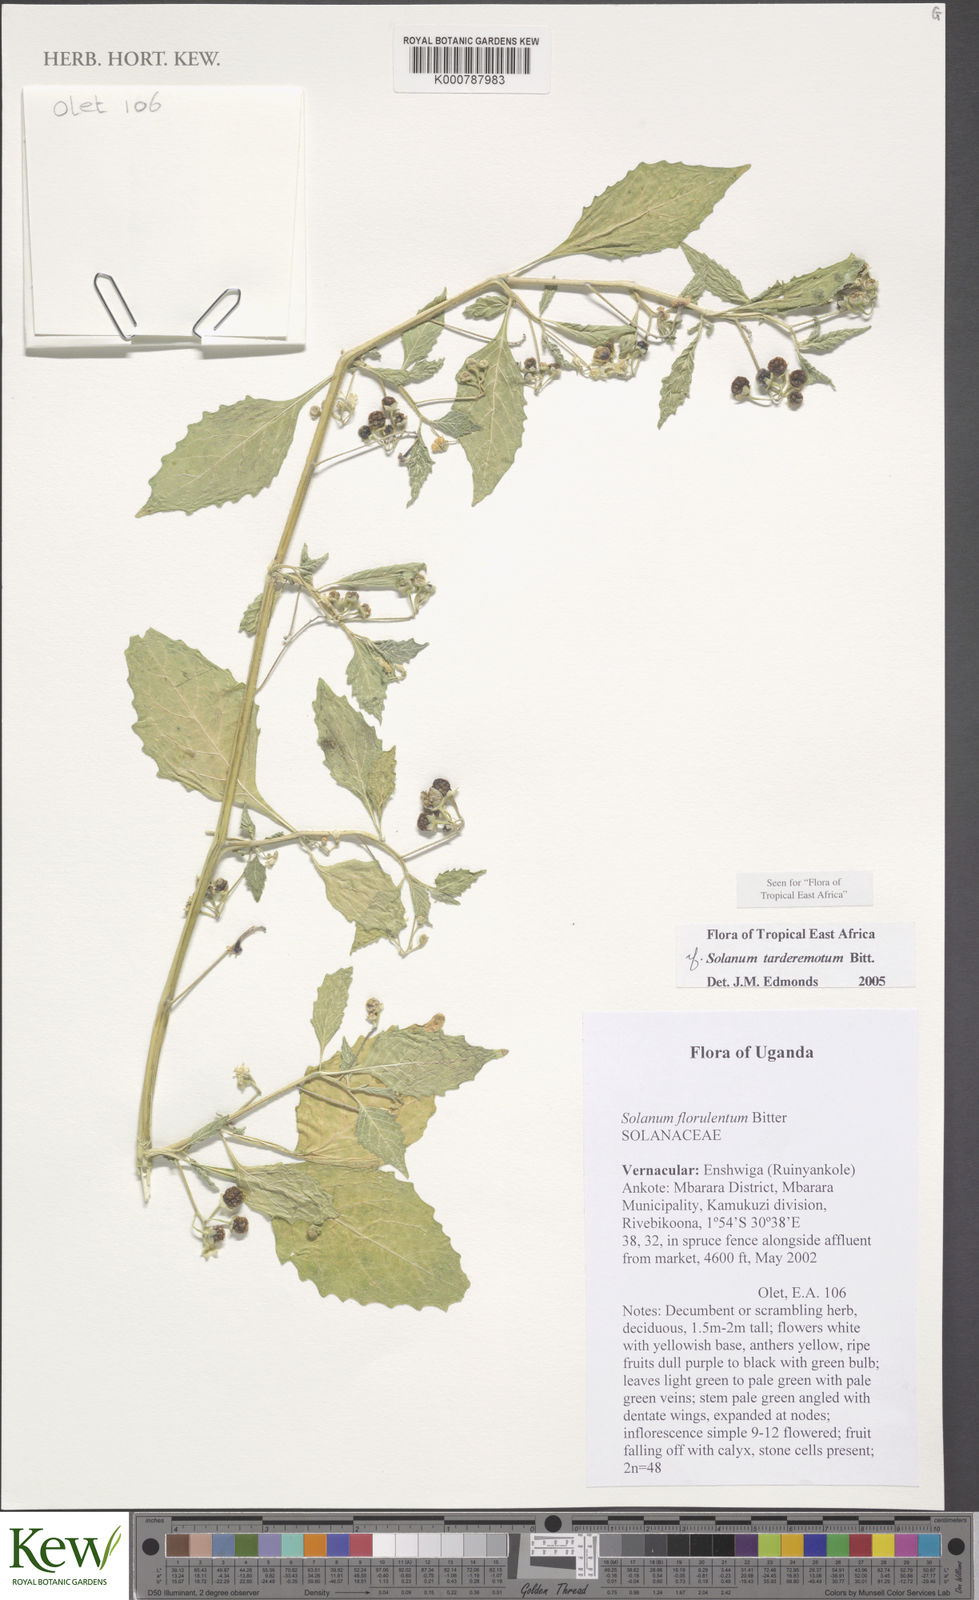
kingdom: Plantae
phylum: Tracheophyta
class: Magnoliopsida
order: Solanales
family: Solanaceae
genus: Solanum
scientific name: Solanum tarderemotum
